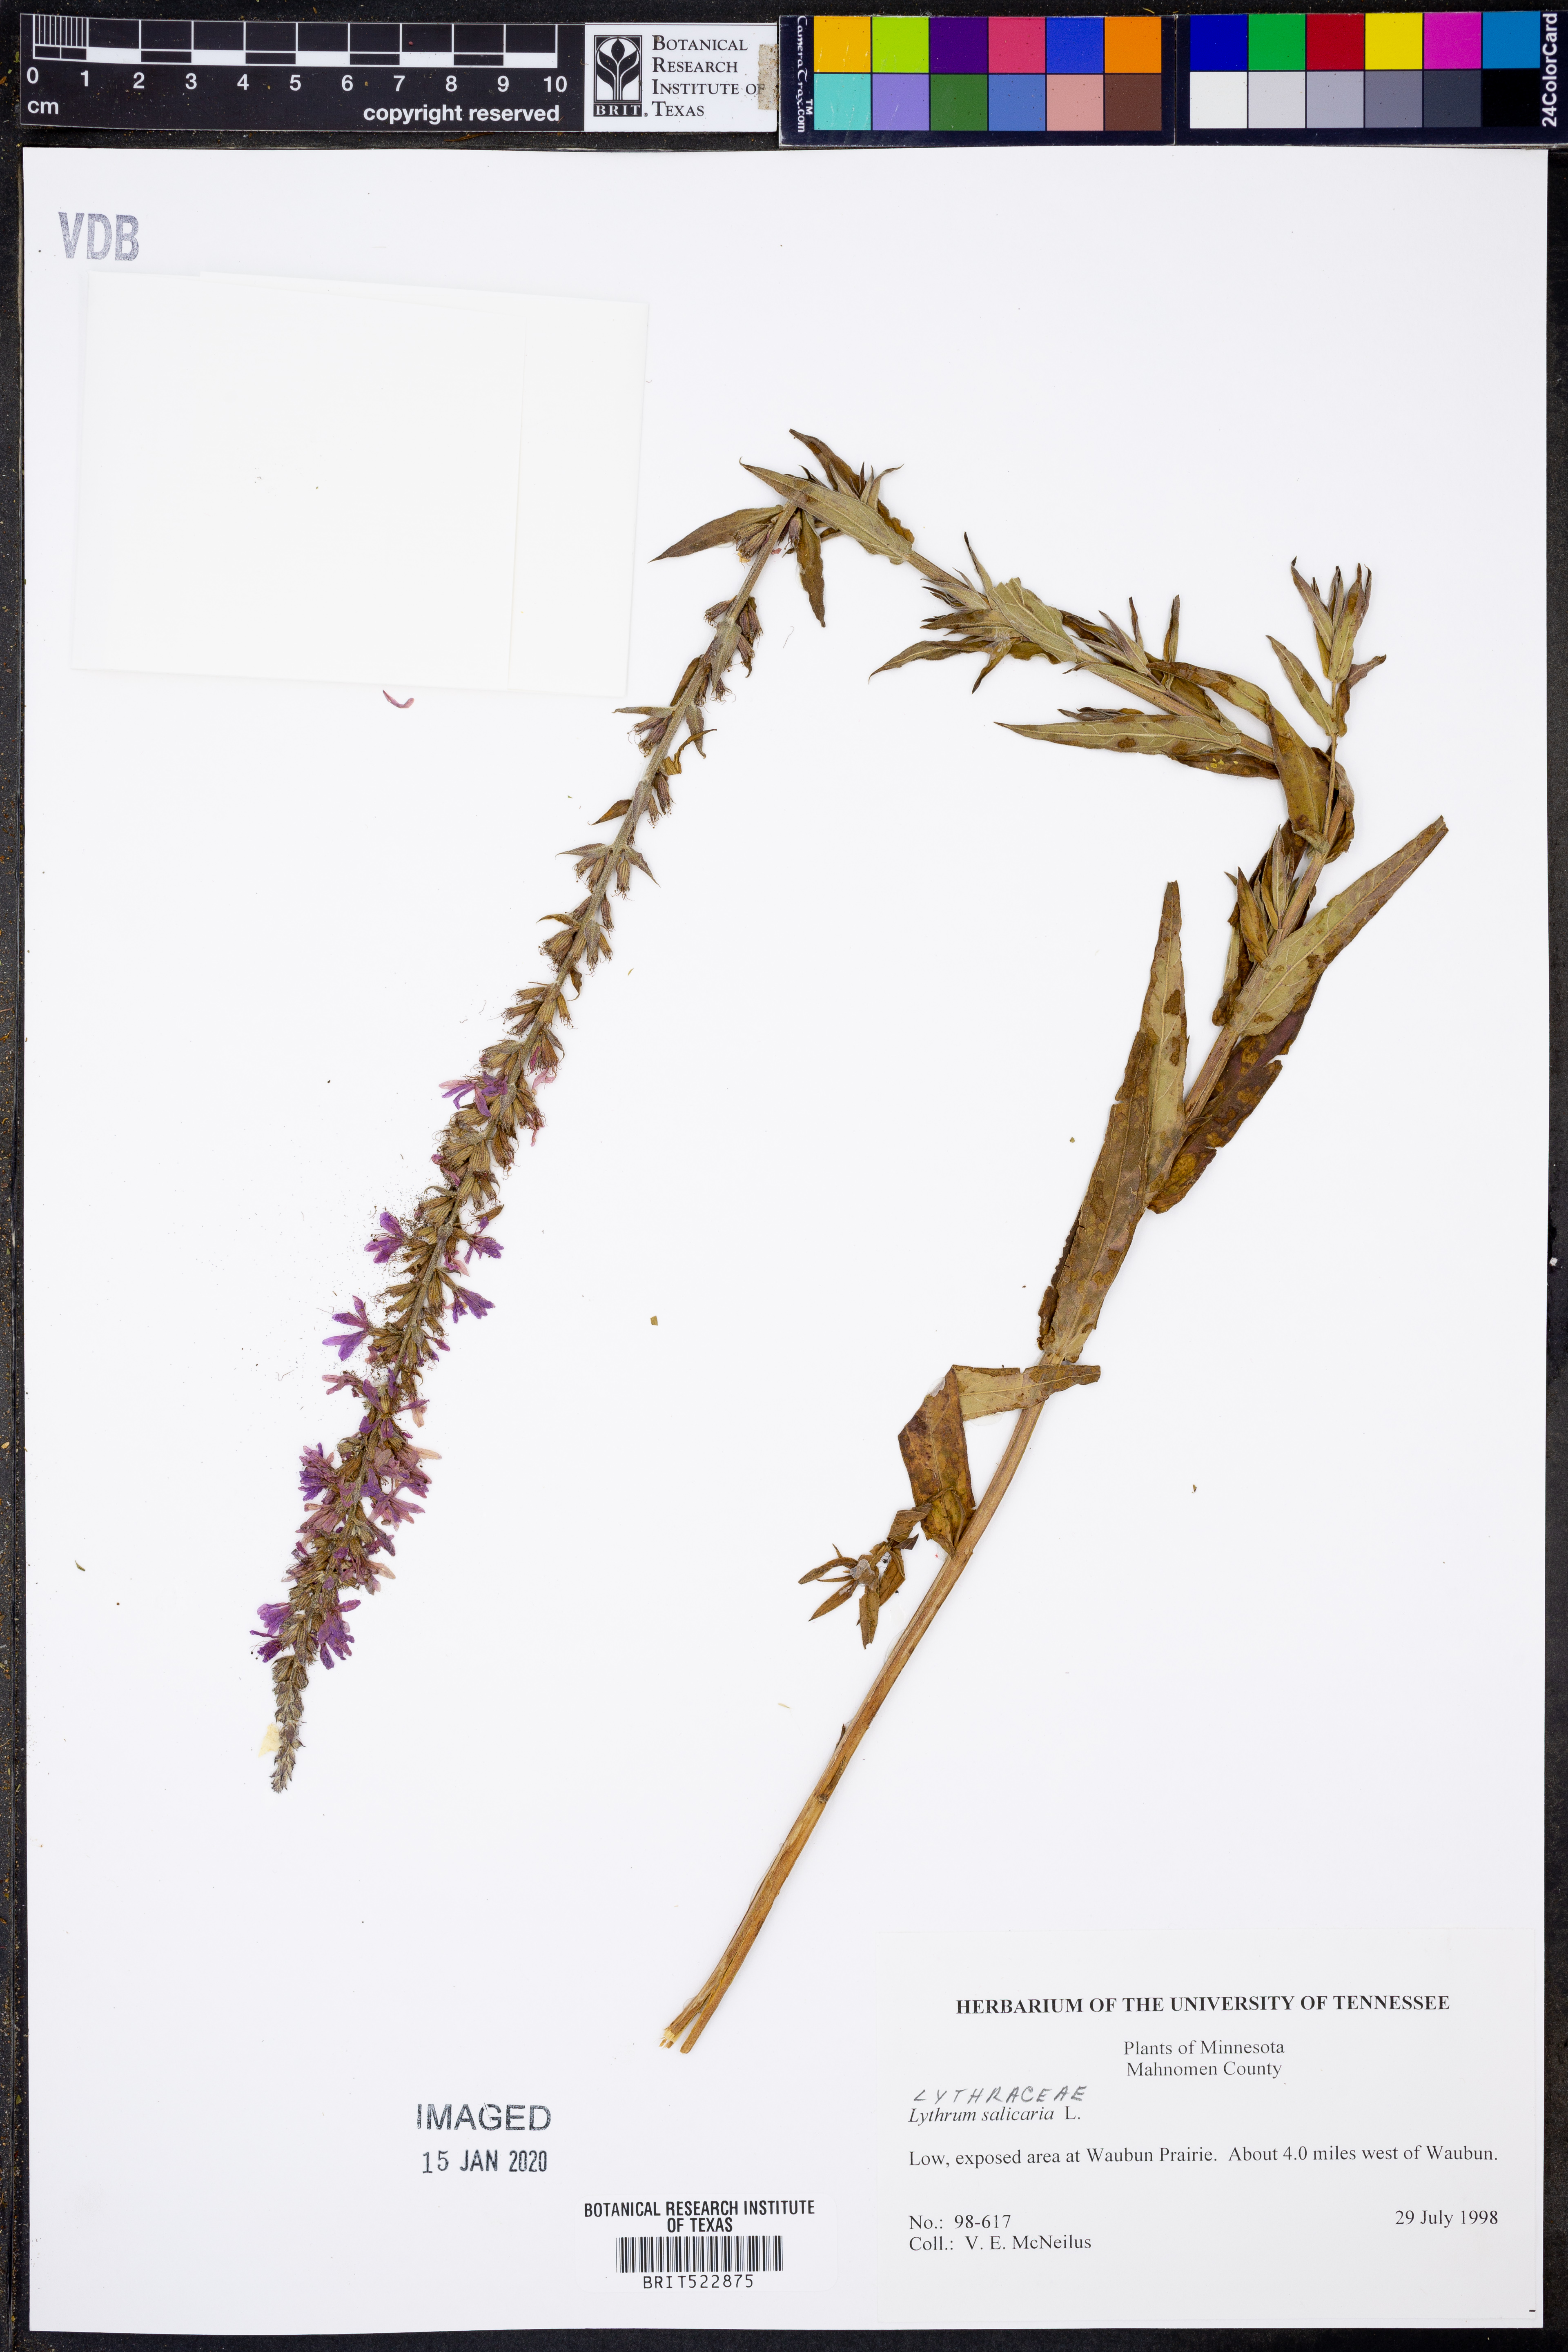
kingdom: Plantae
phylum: Tracheophyta
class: Magnoliopsida
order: Myrtales
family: Lythraceae
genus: Lythrum
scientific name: Lythrum salicaria
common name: Purple loosestrife
